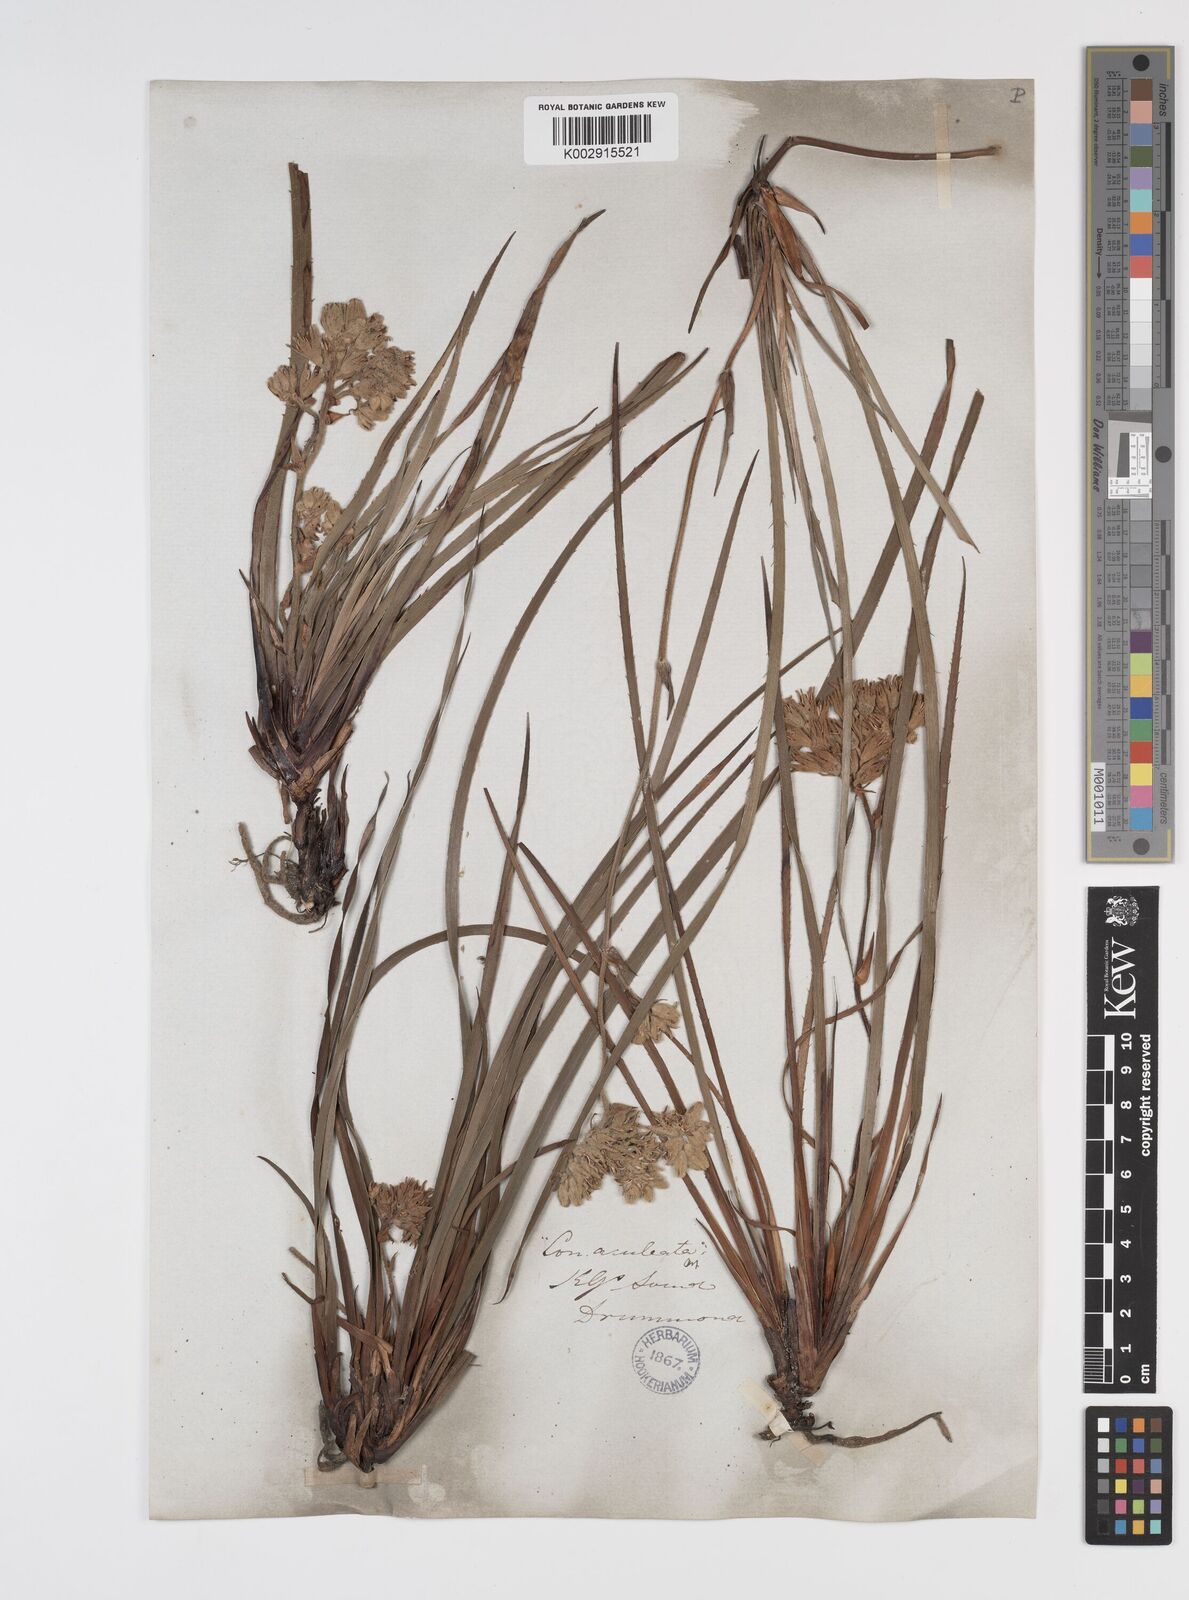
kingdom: Plantae
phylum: Tracheophyta
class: Liliopsida
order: Commelinales
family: Haemodoraceae
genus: Conostylis
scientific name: Conostylis aculeata
